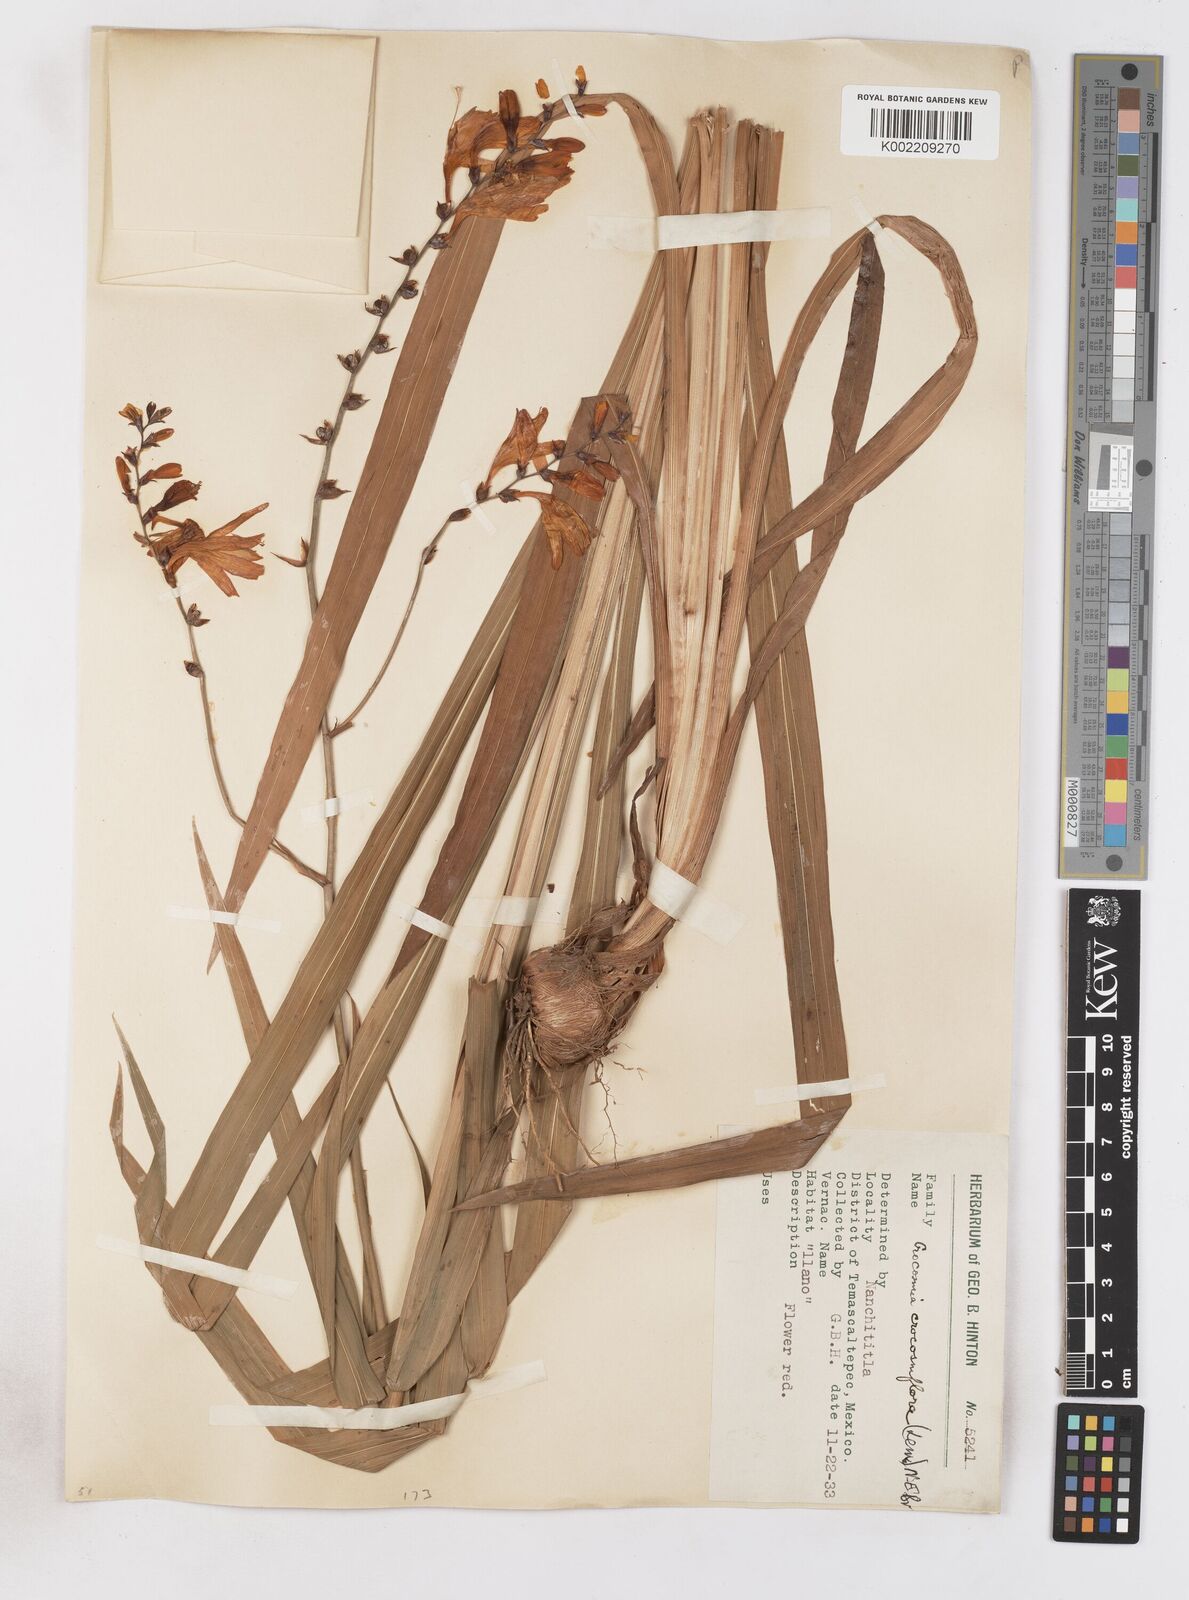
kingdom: Plantae
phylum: Tracheophyta
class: Liliopsida
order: Asparagales
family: Iridaceae
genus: Crocosmia
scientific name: Crocosmia
